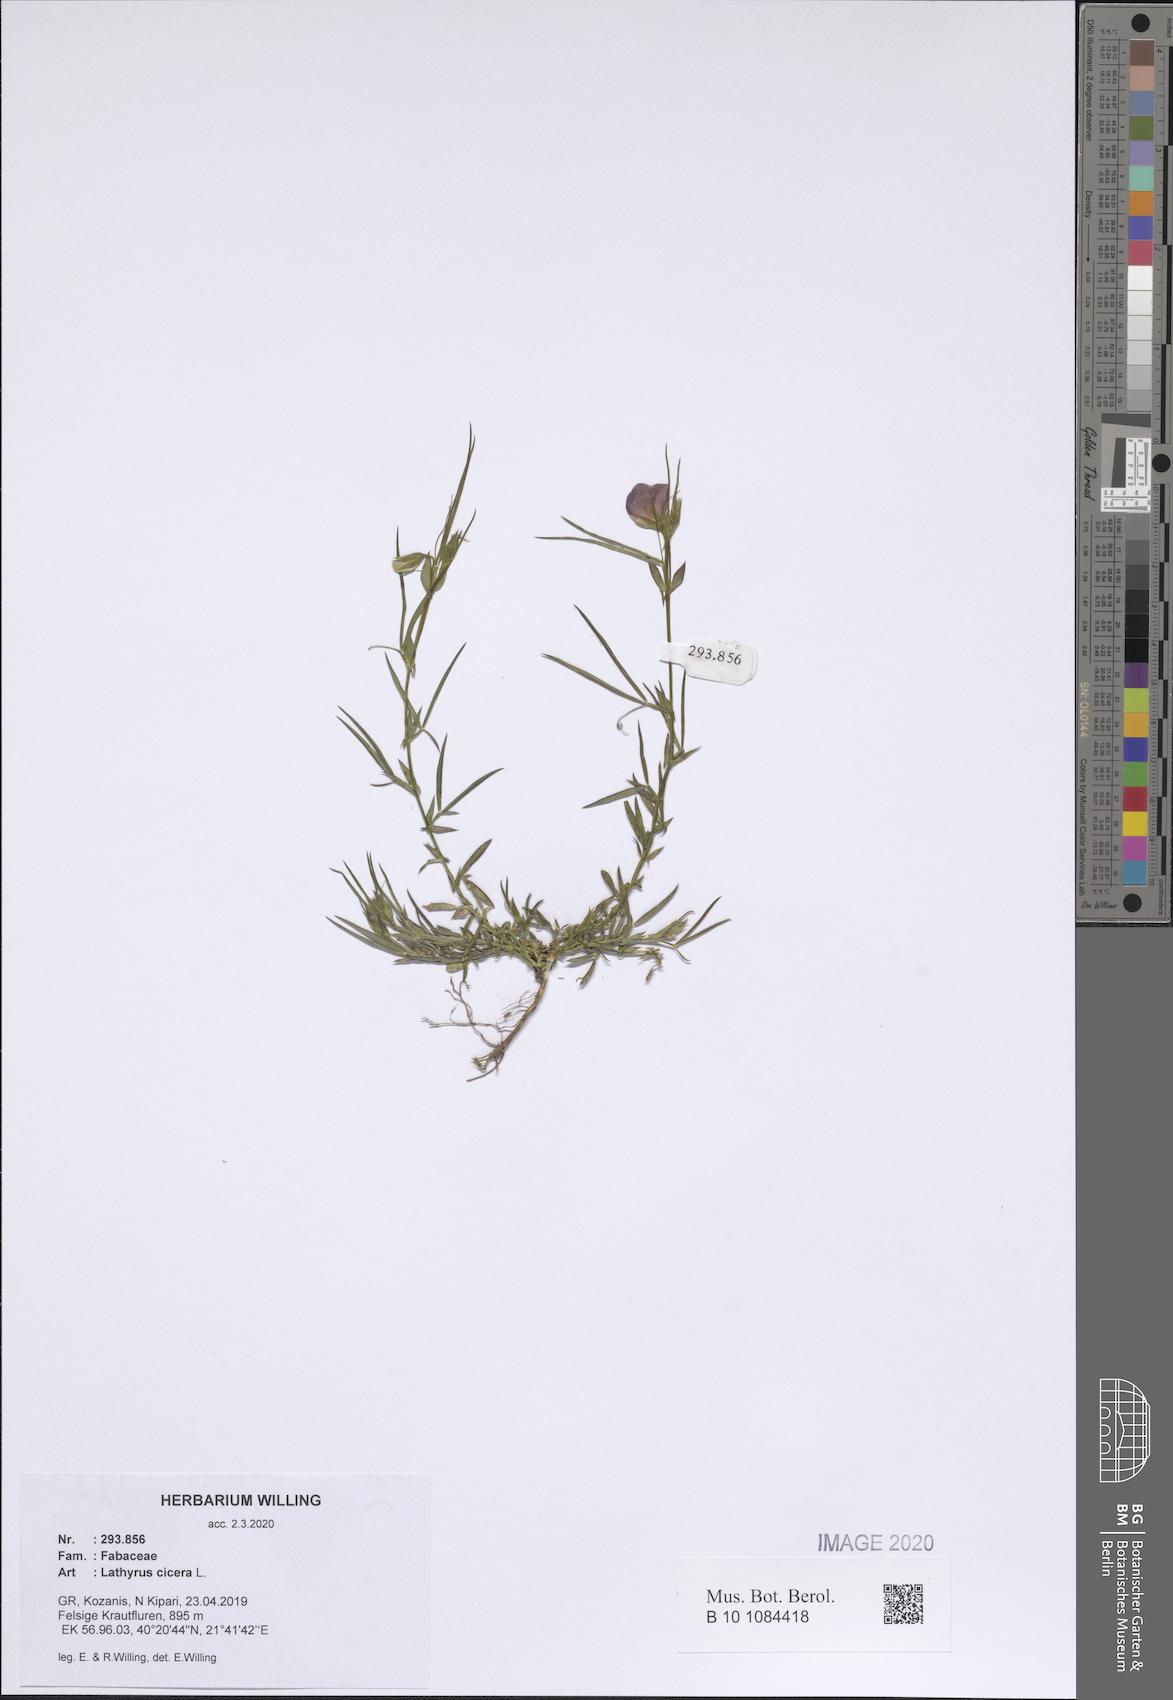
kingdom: Plantae
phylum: Tracheophyta
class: Magnoliopsida
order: Fabales
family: Fabaceae
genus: Lathyrus
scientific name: Lathyrus cicera
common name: Red vetchling
